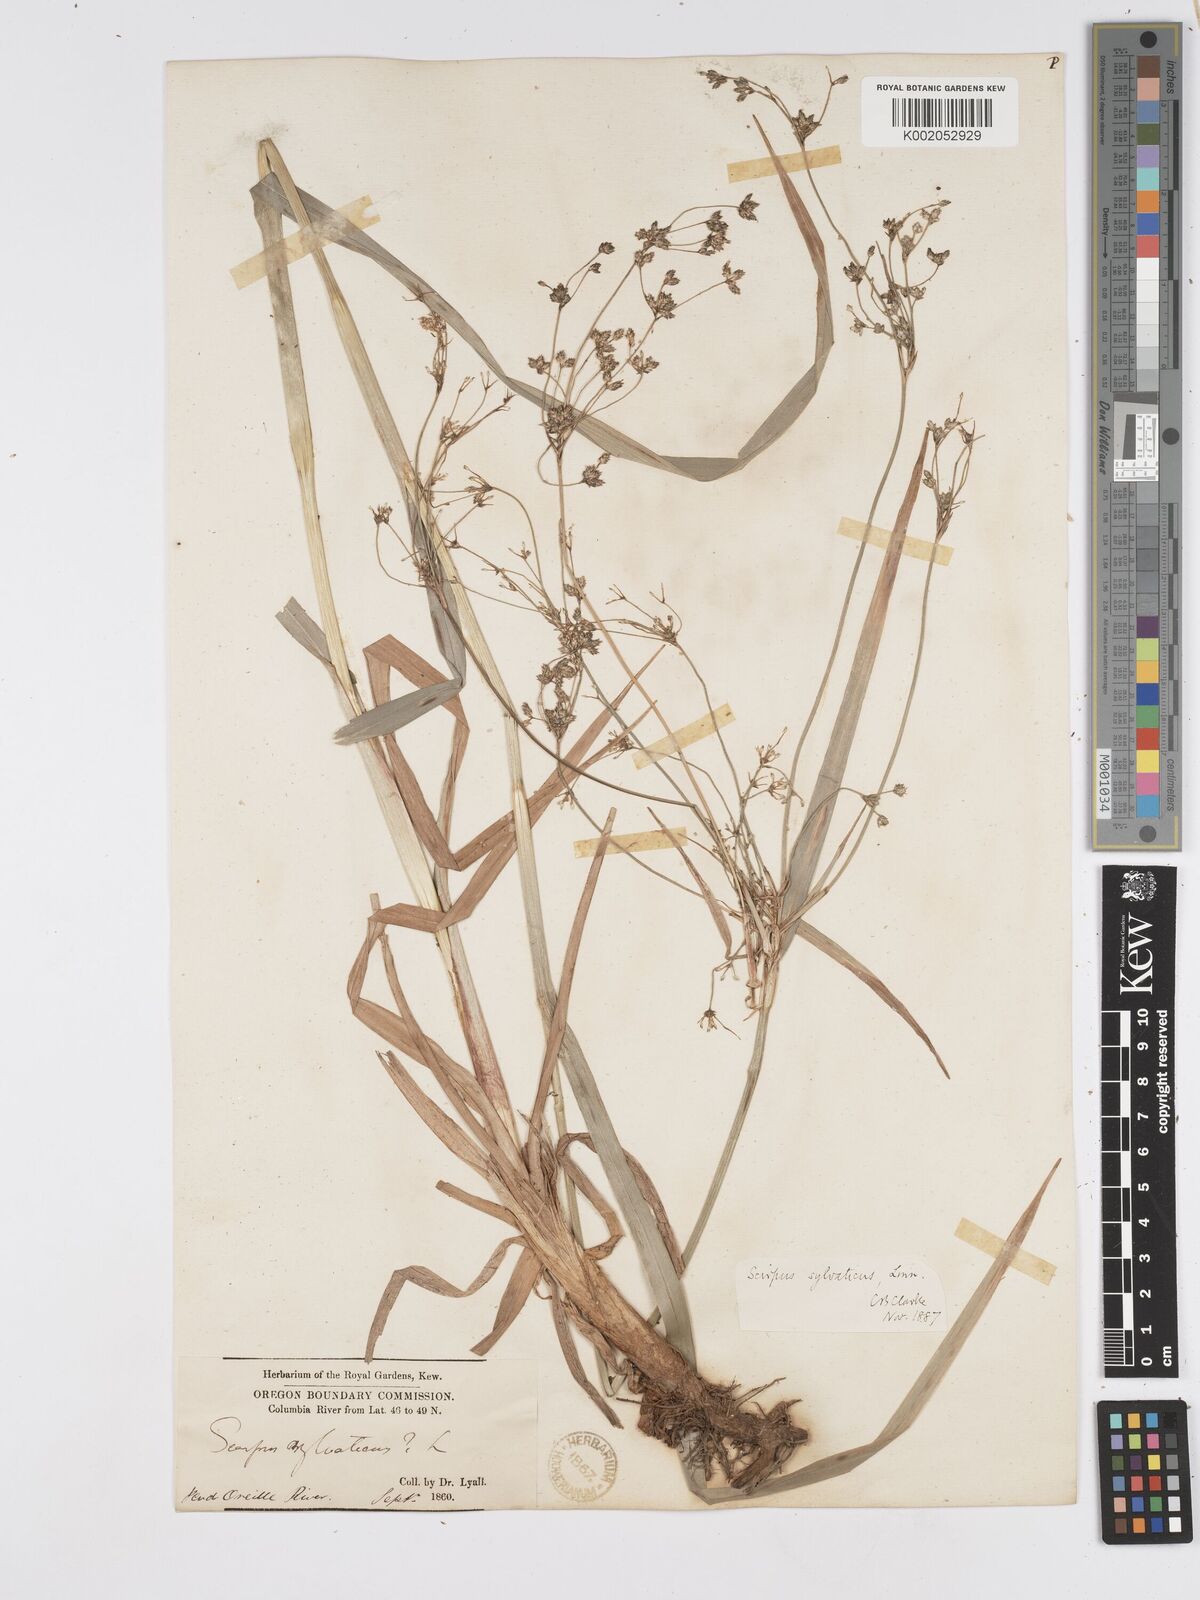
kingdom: Plantae
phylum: Tracheophyta
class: Liliopsida
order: Poales
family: Cyperaceae
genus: Scirpus
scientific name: Scirpus sylvaticus
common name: Wood club-rush
